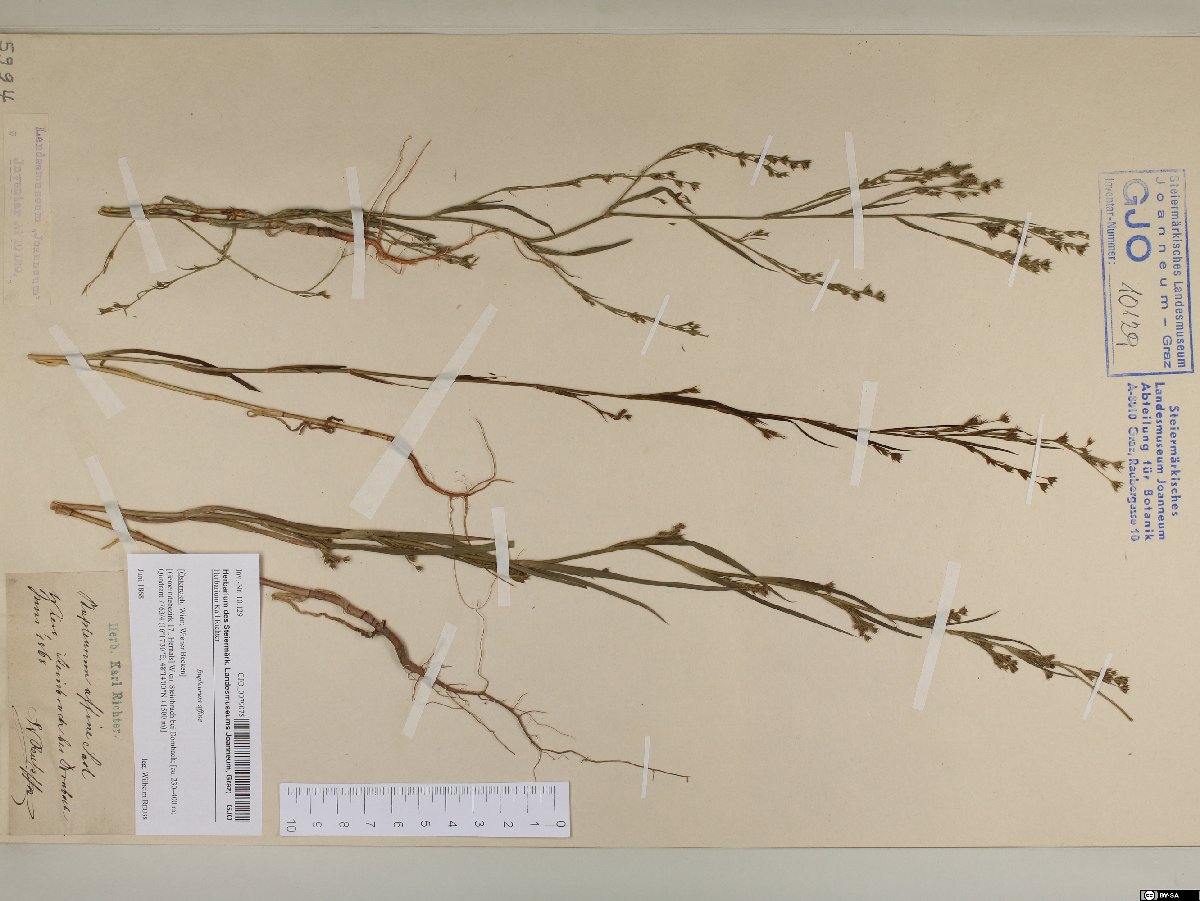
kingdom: Plantae
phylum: Tracheophyta
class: Magnoliopsida
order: Apiales
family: Apiaceae
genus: Bupleurum
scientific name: Bupleurum affine
